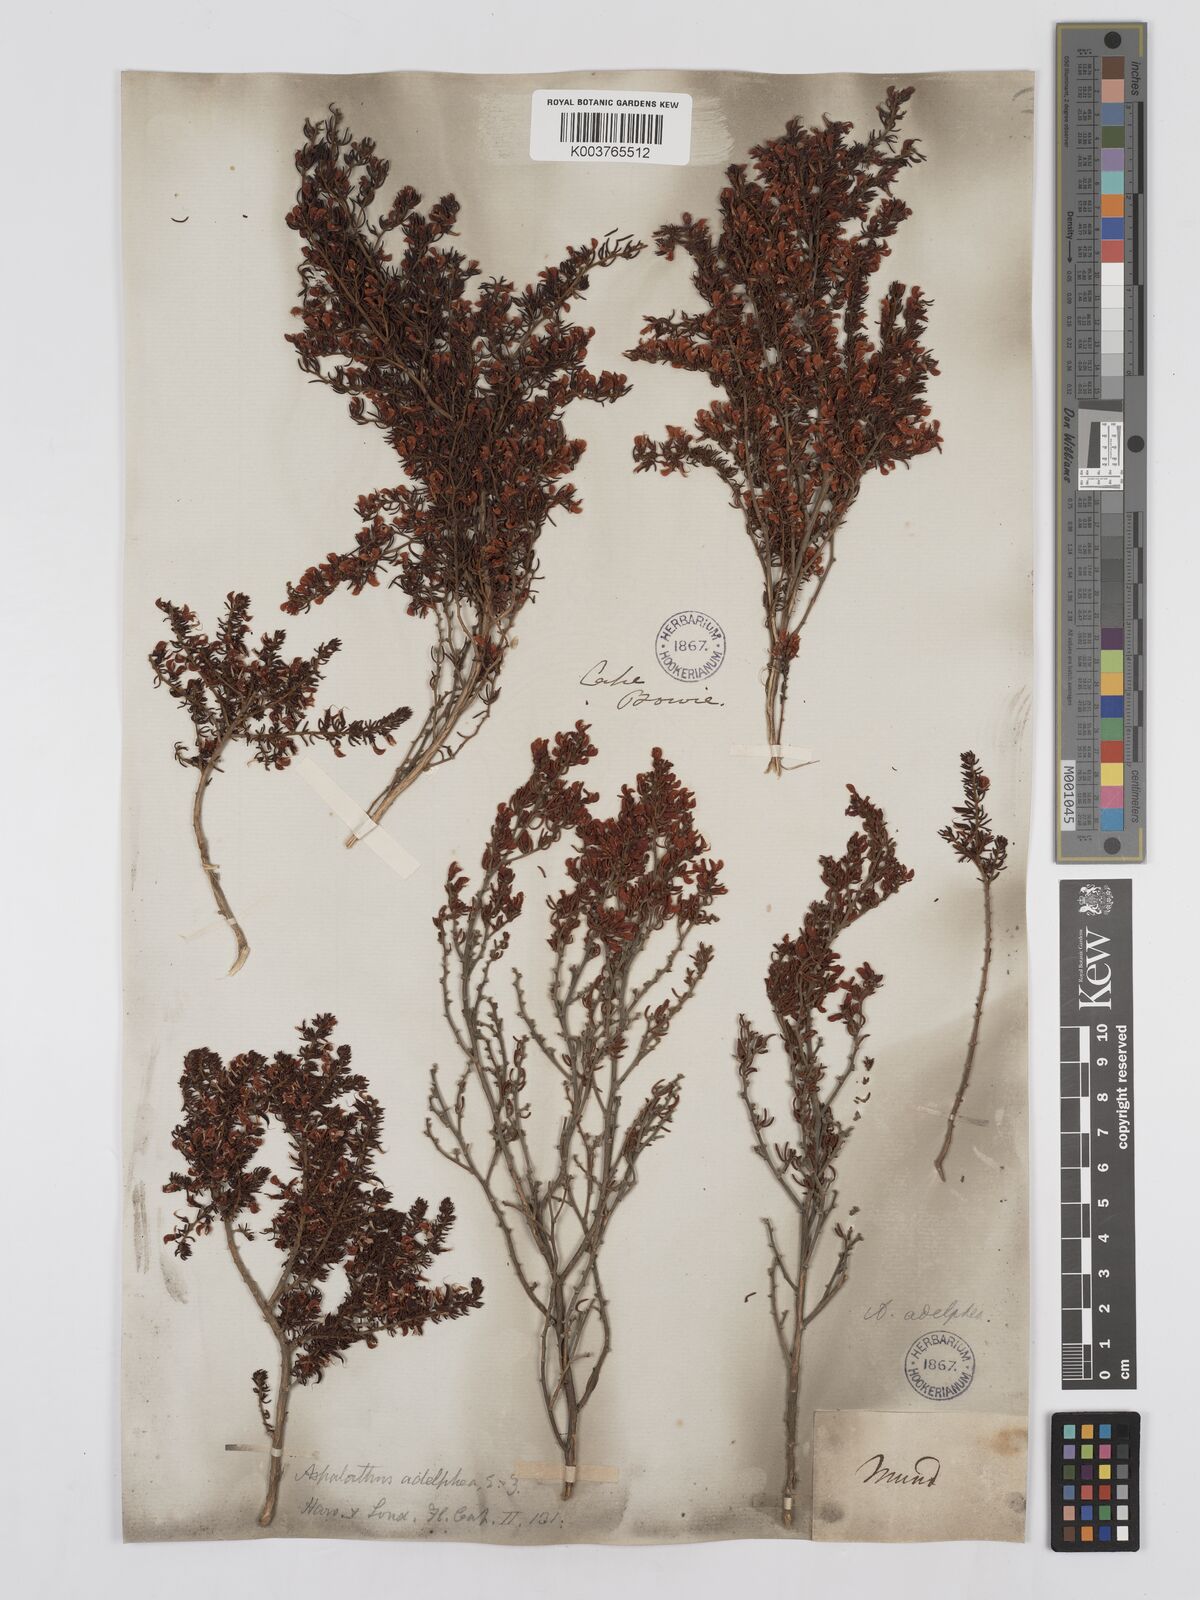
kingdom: Plantae
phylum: Tracheophyta
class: Magnoliopsida
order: Fabales
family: Fabaceae
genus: Aspalathus
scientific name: Aspalathus lactea
